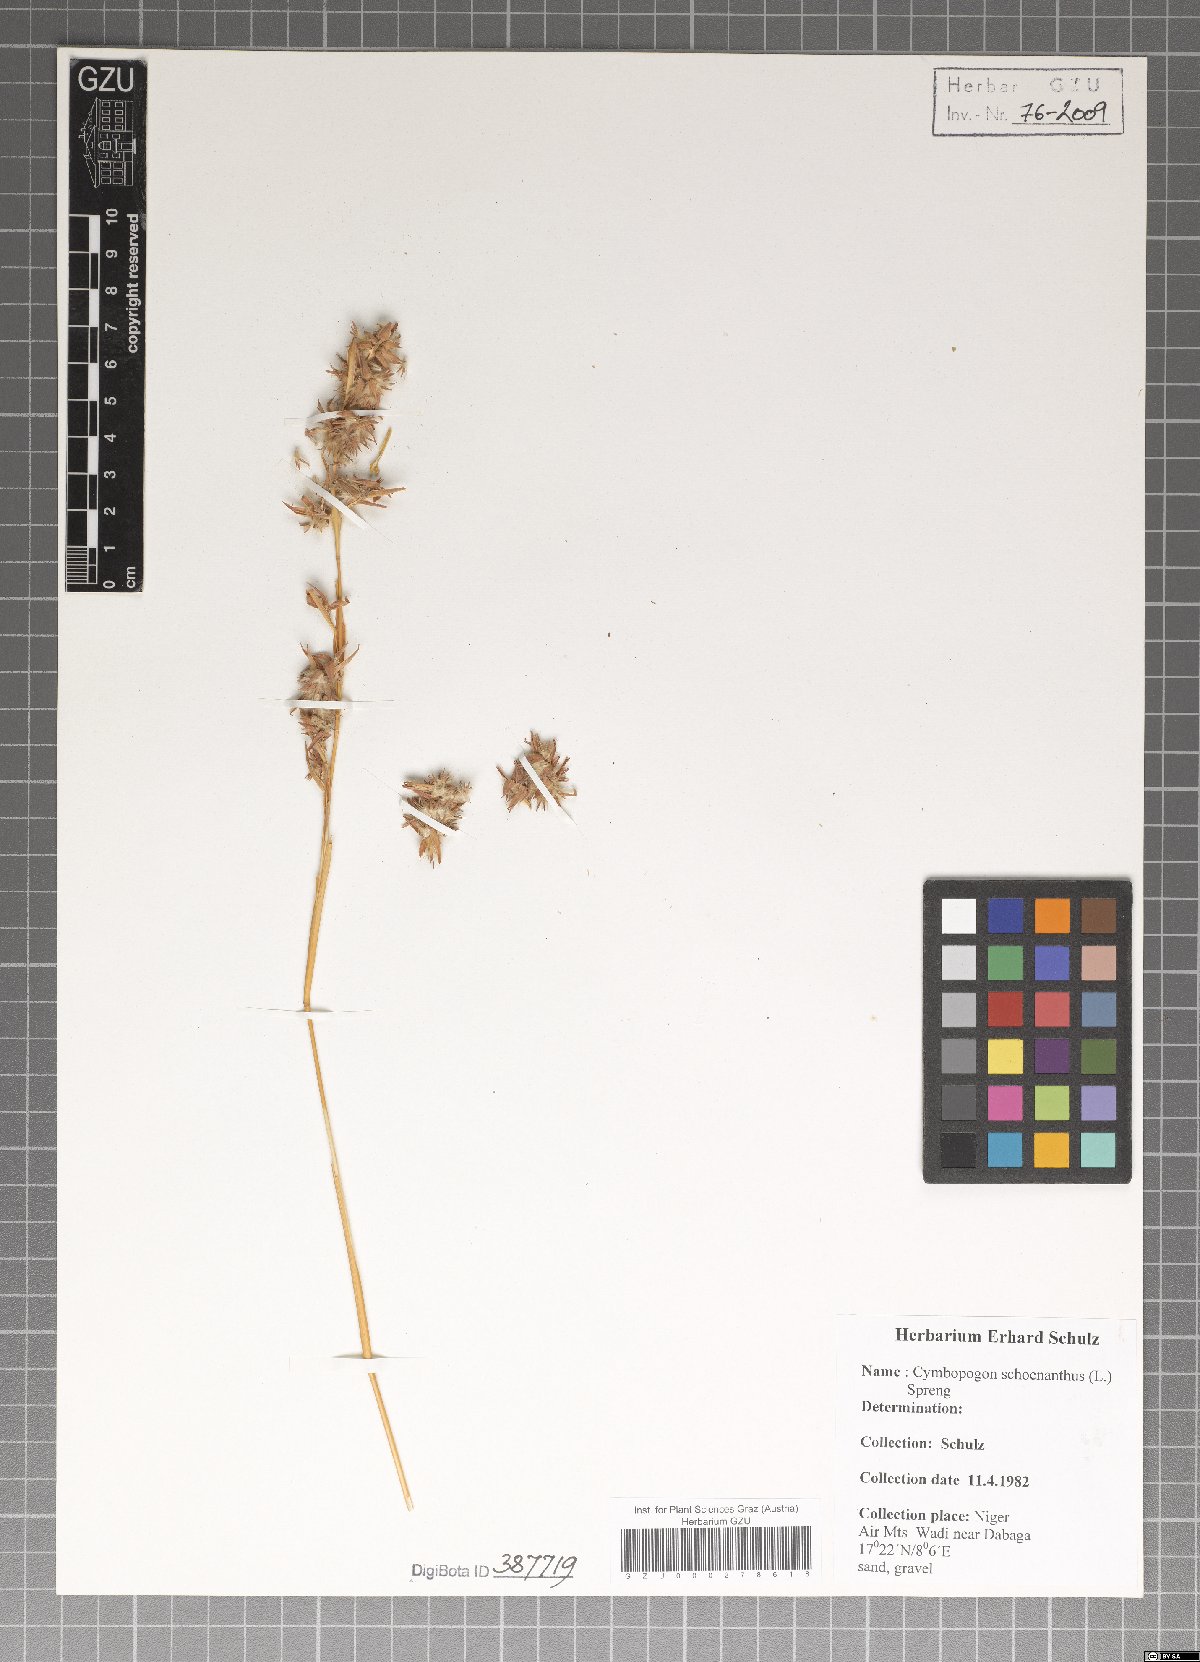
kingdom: Plantae
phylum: Tracheophyta
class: Liliopsida
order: Poales
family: Poaceae
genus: Cymbopogon
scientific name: Cymbopogon schoenanthus
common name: Geranium grass
